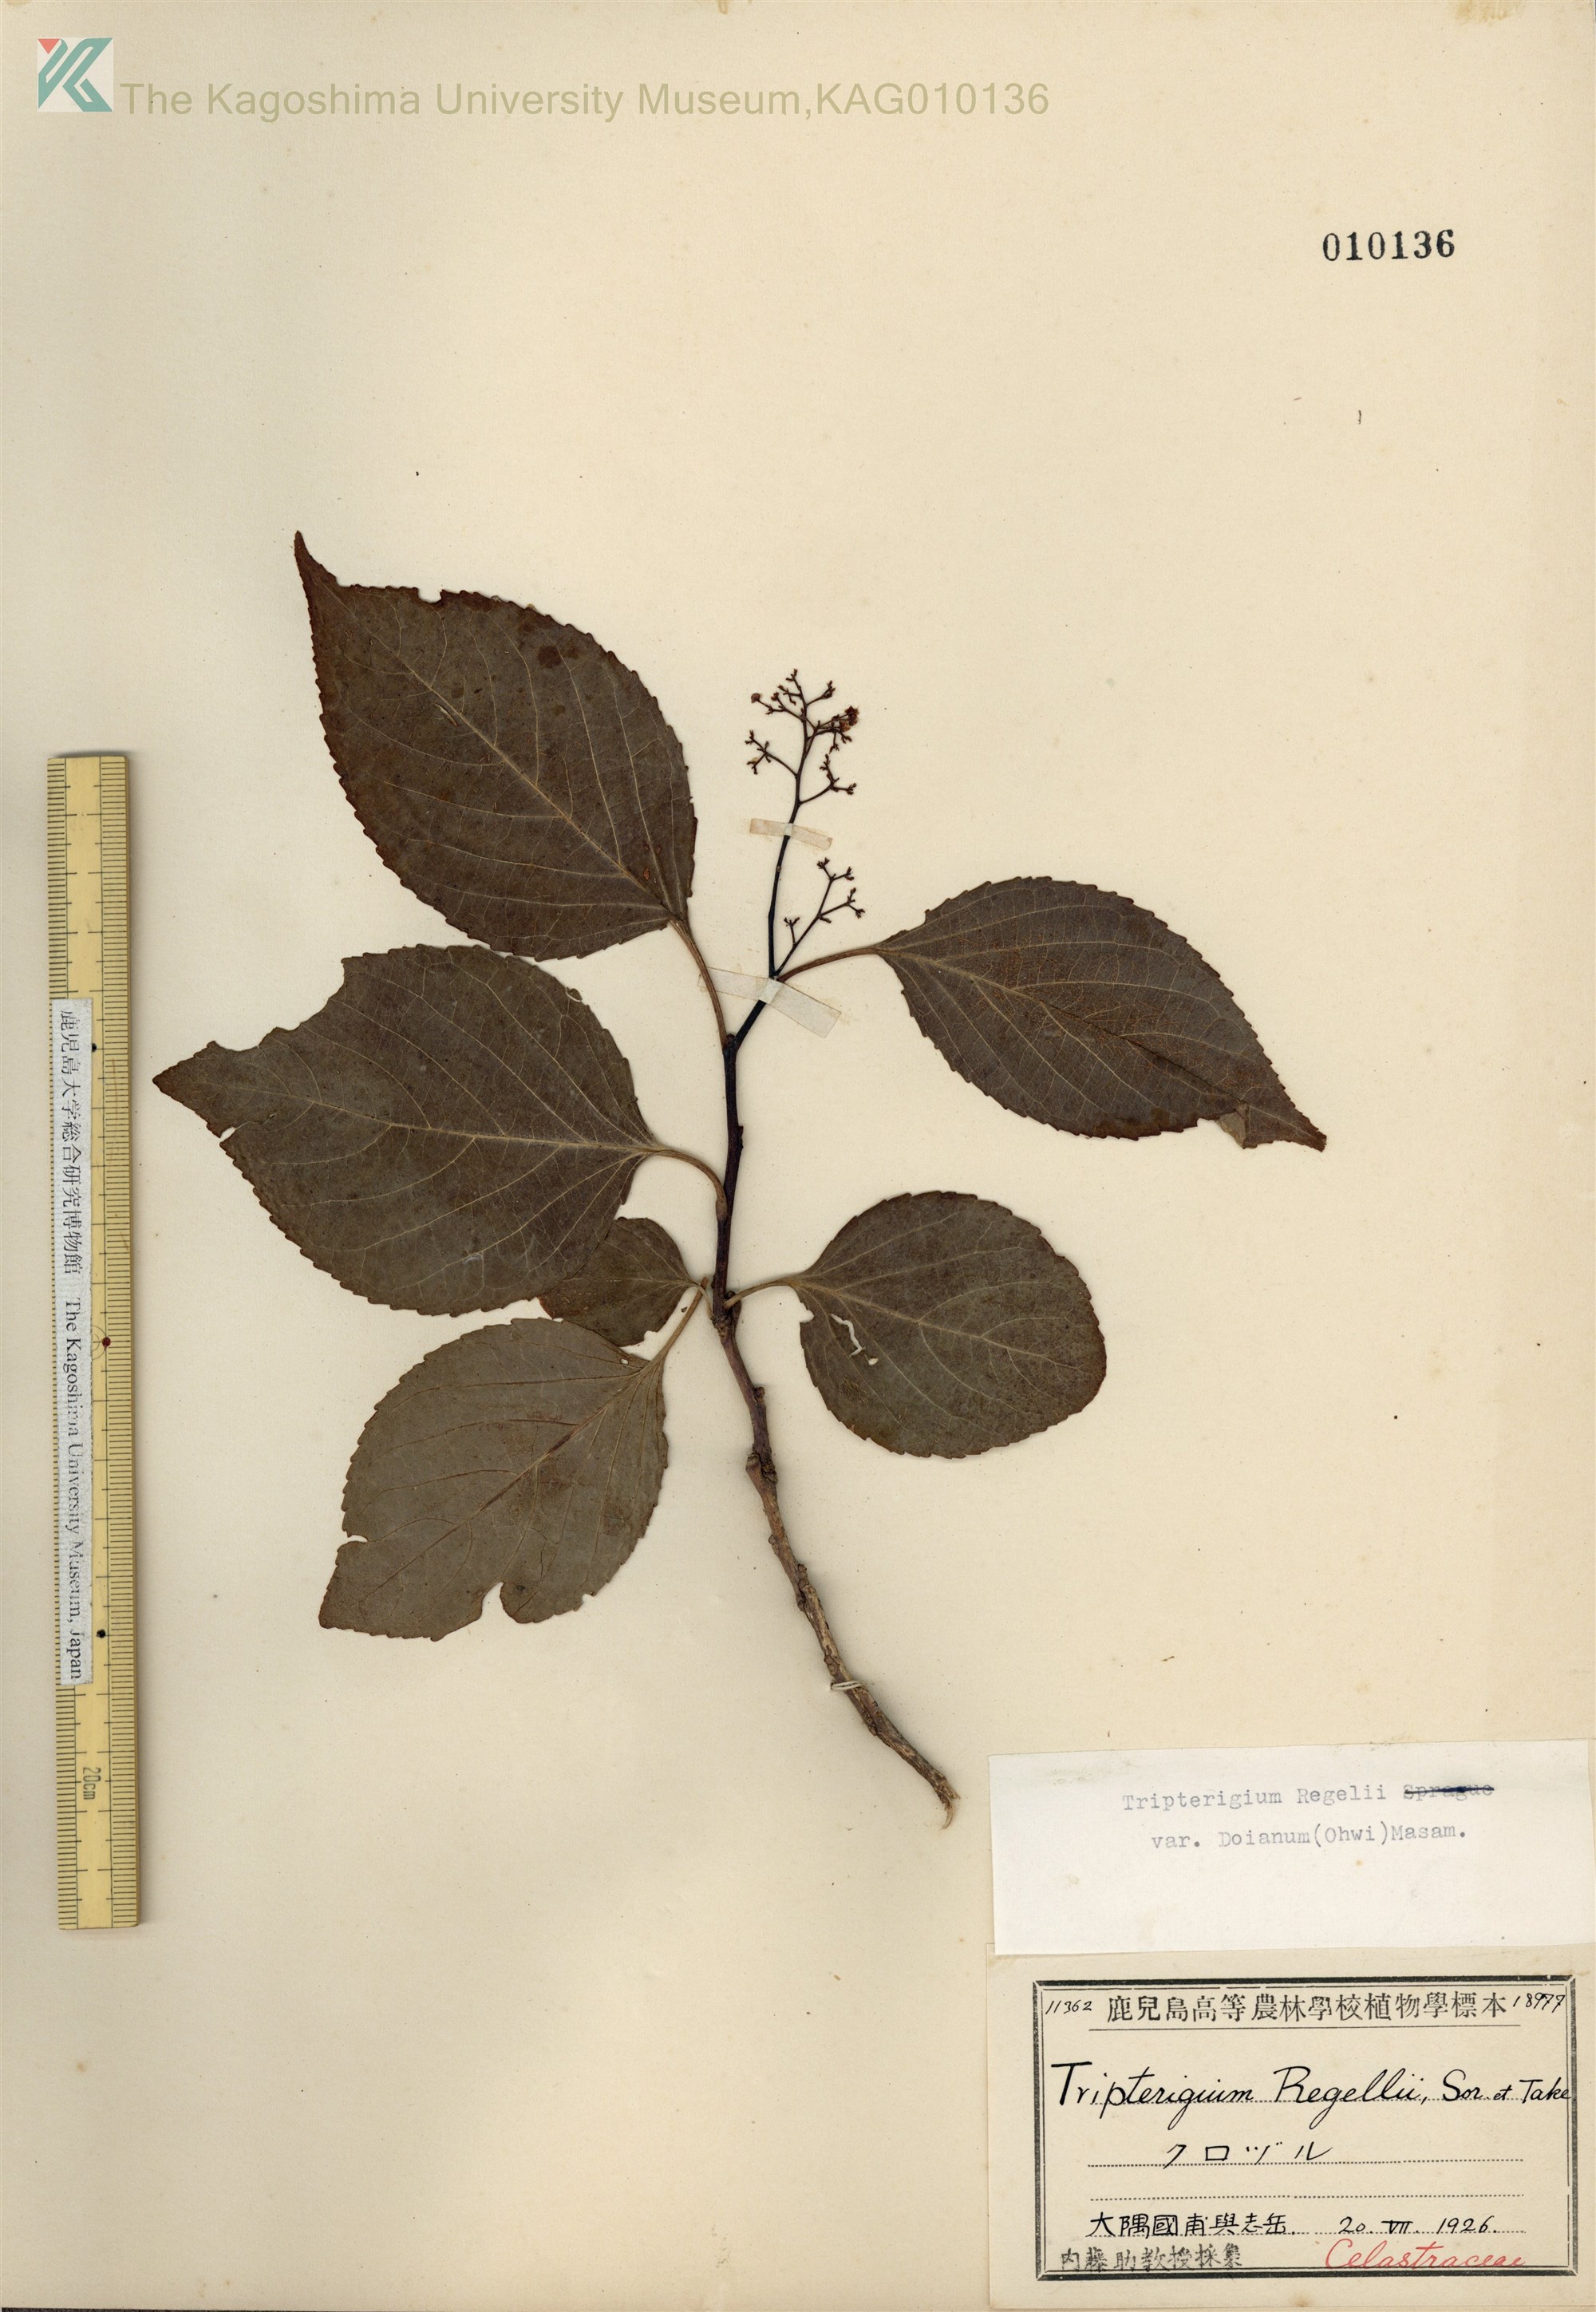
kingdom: Plantae
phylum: Tracheophyta
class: Magnoliopsida
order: Celastrales
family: Celastraceae
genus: Tripterygium
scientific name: Tripterygium doianum
